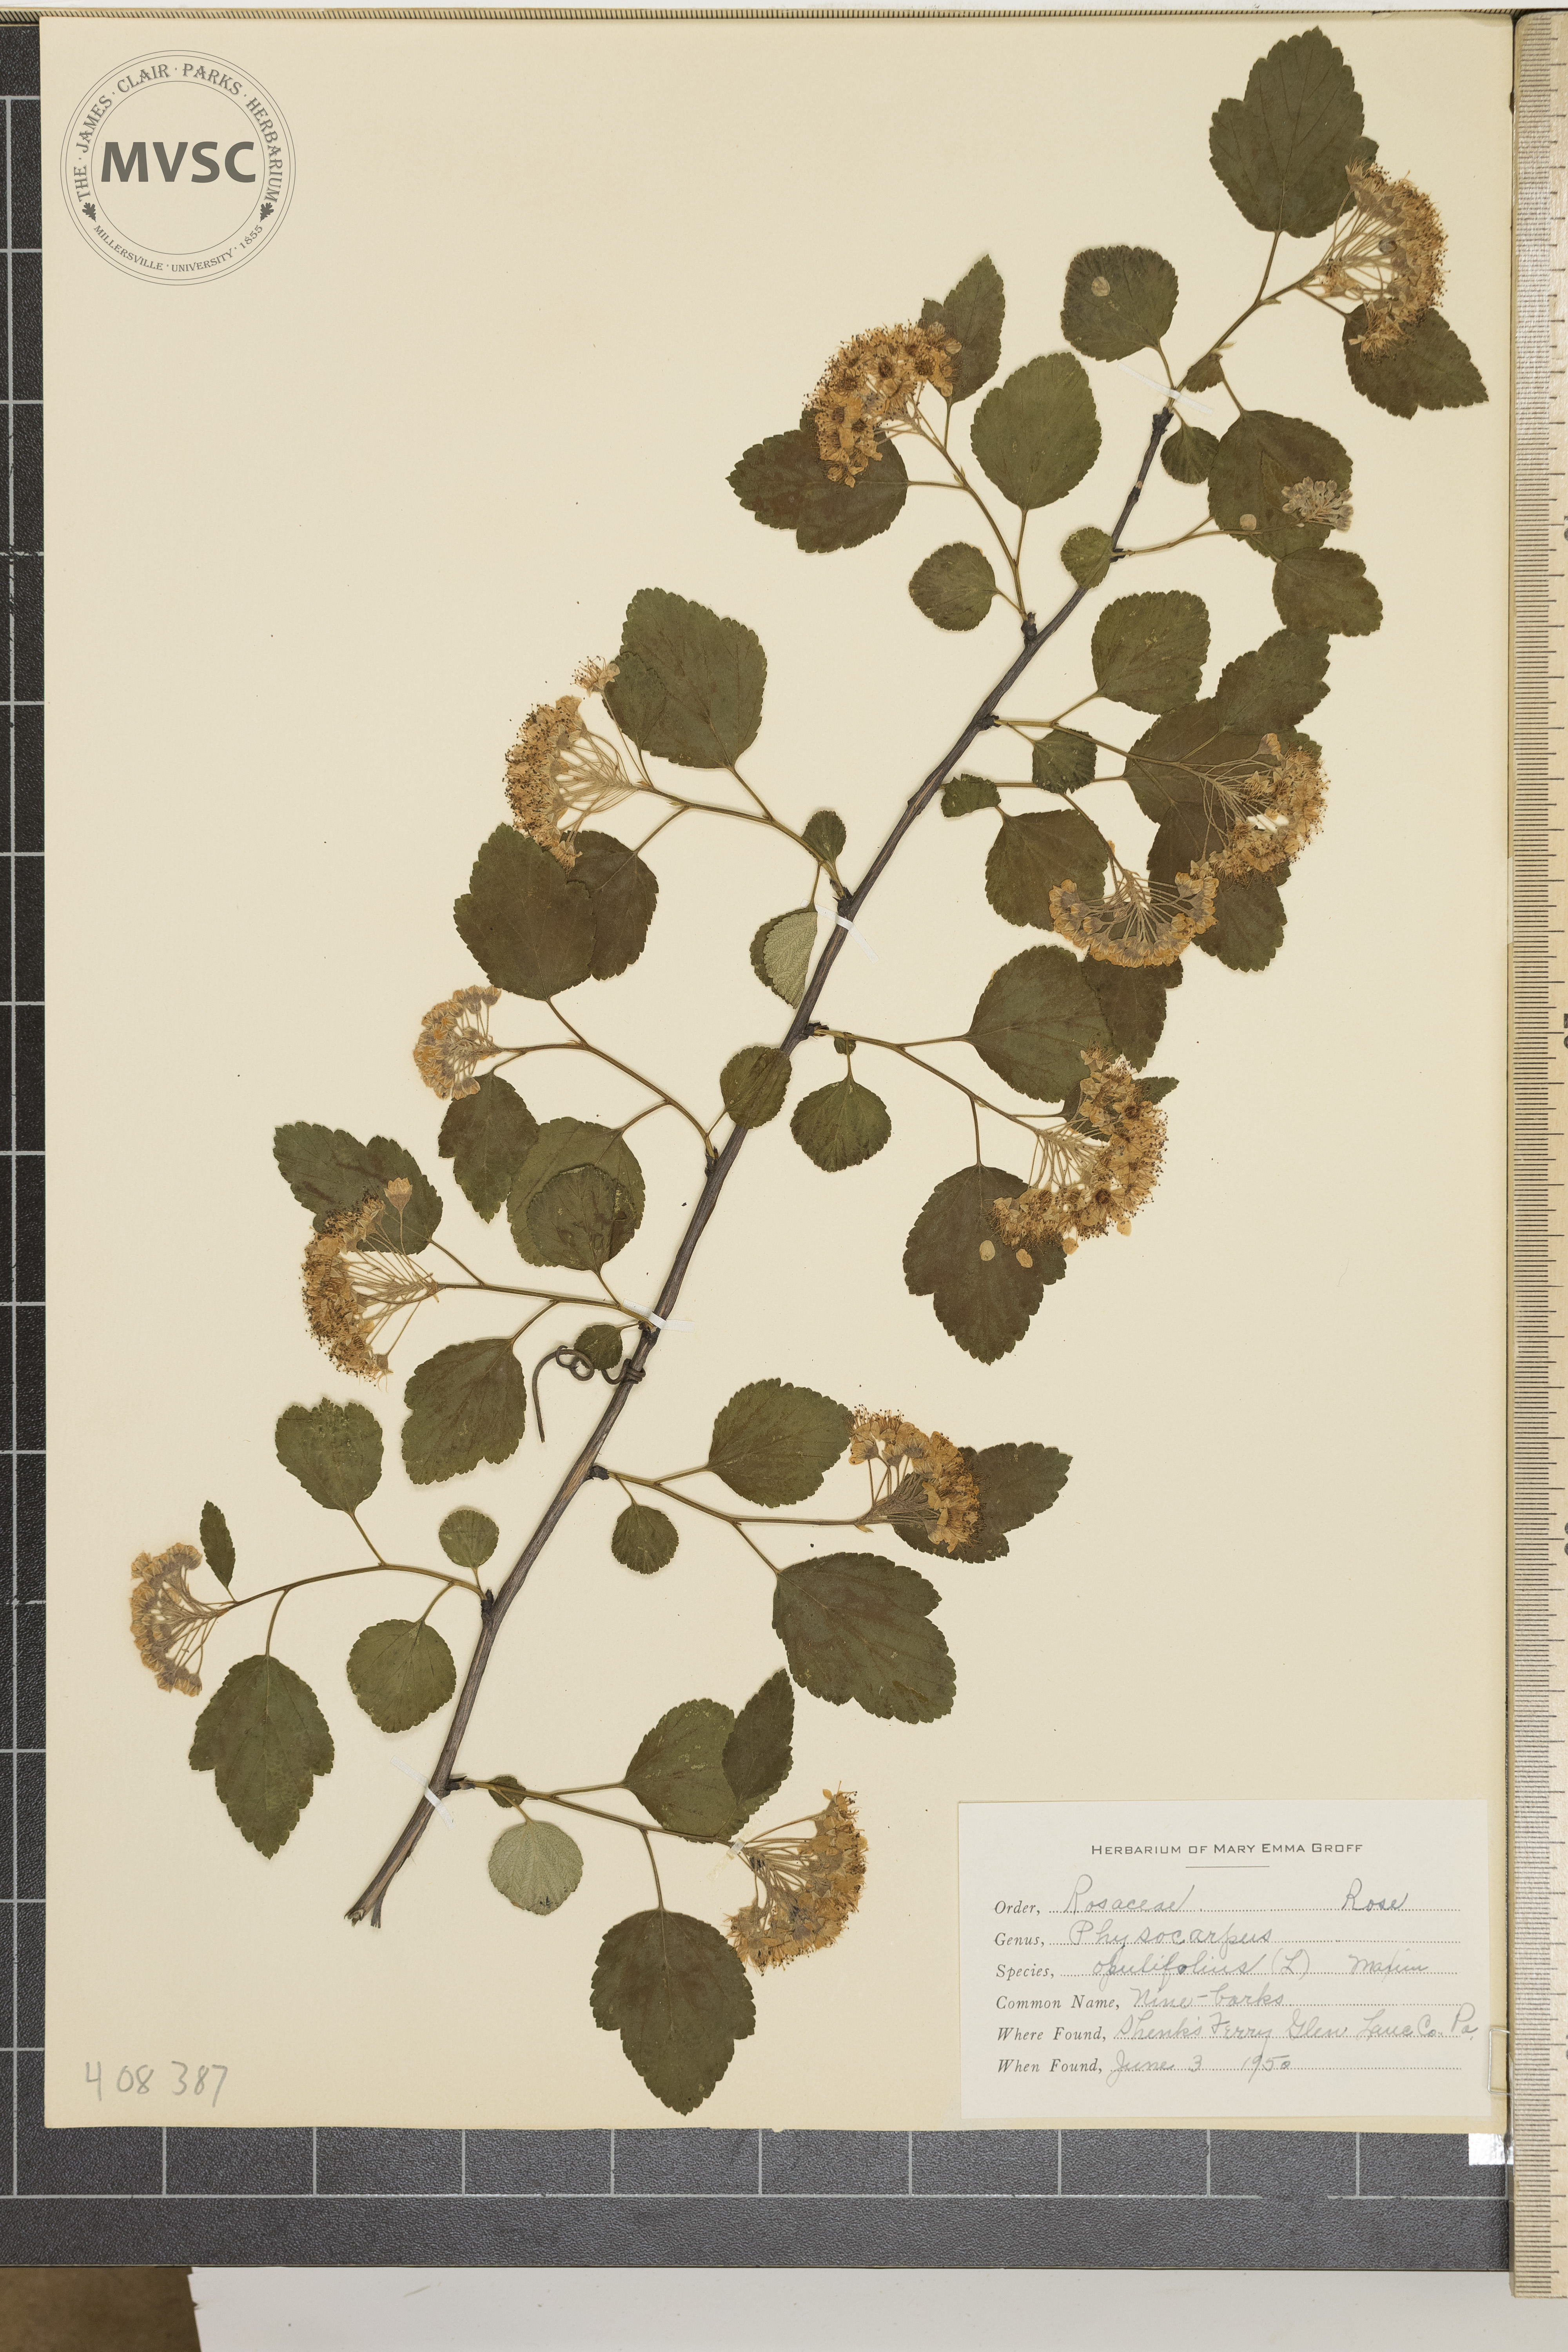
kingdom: Plantae
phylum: Tracheophyta
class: Magnoliopsida
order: Rosales
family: Rosaceae
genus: Physocarpus
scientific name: Physocarpus opulifolius
